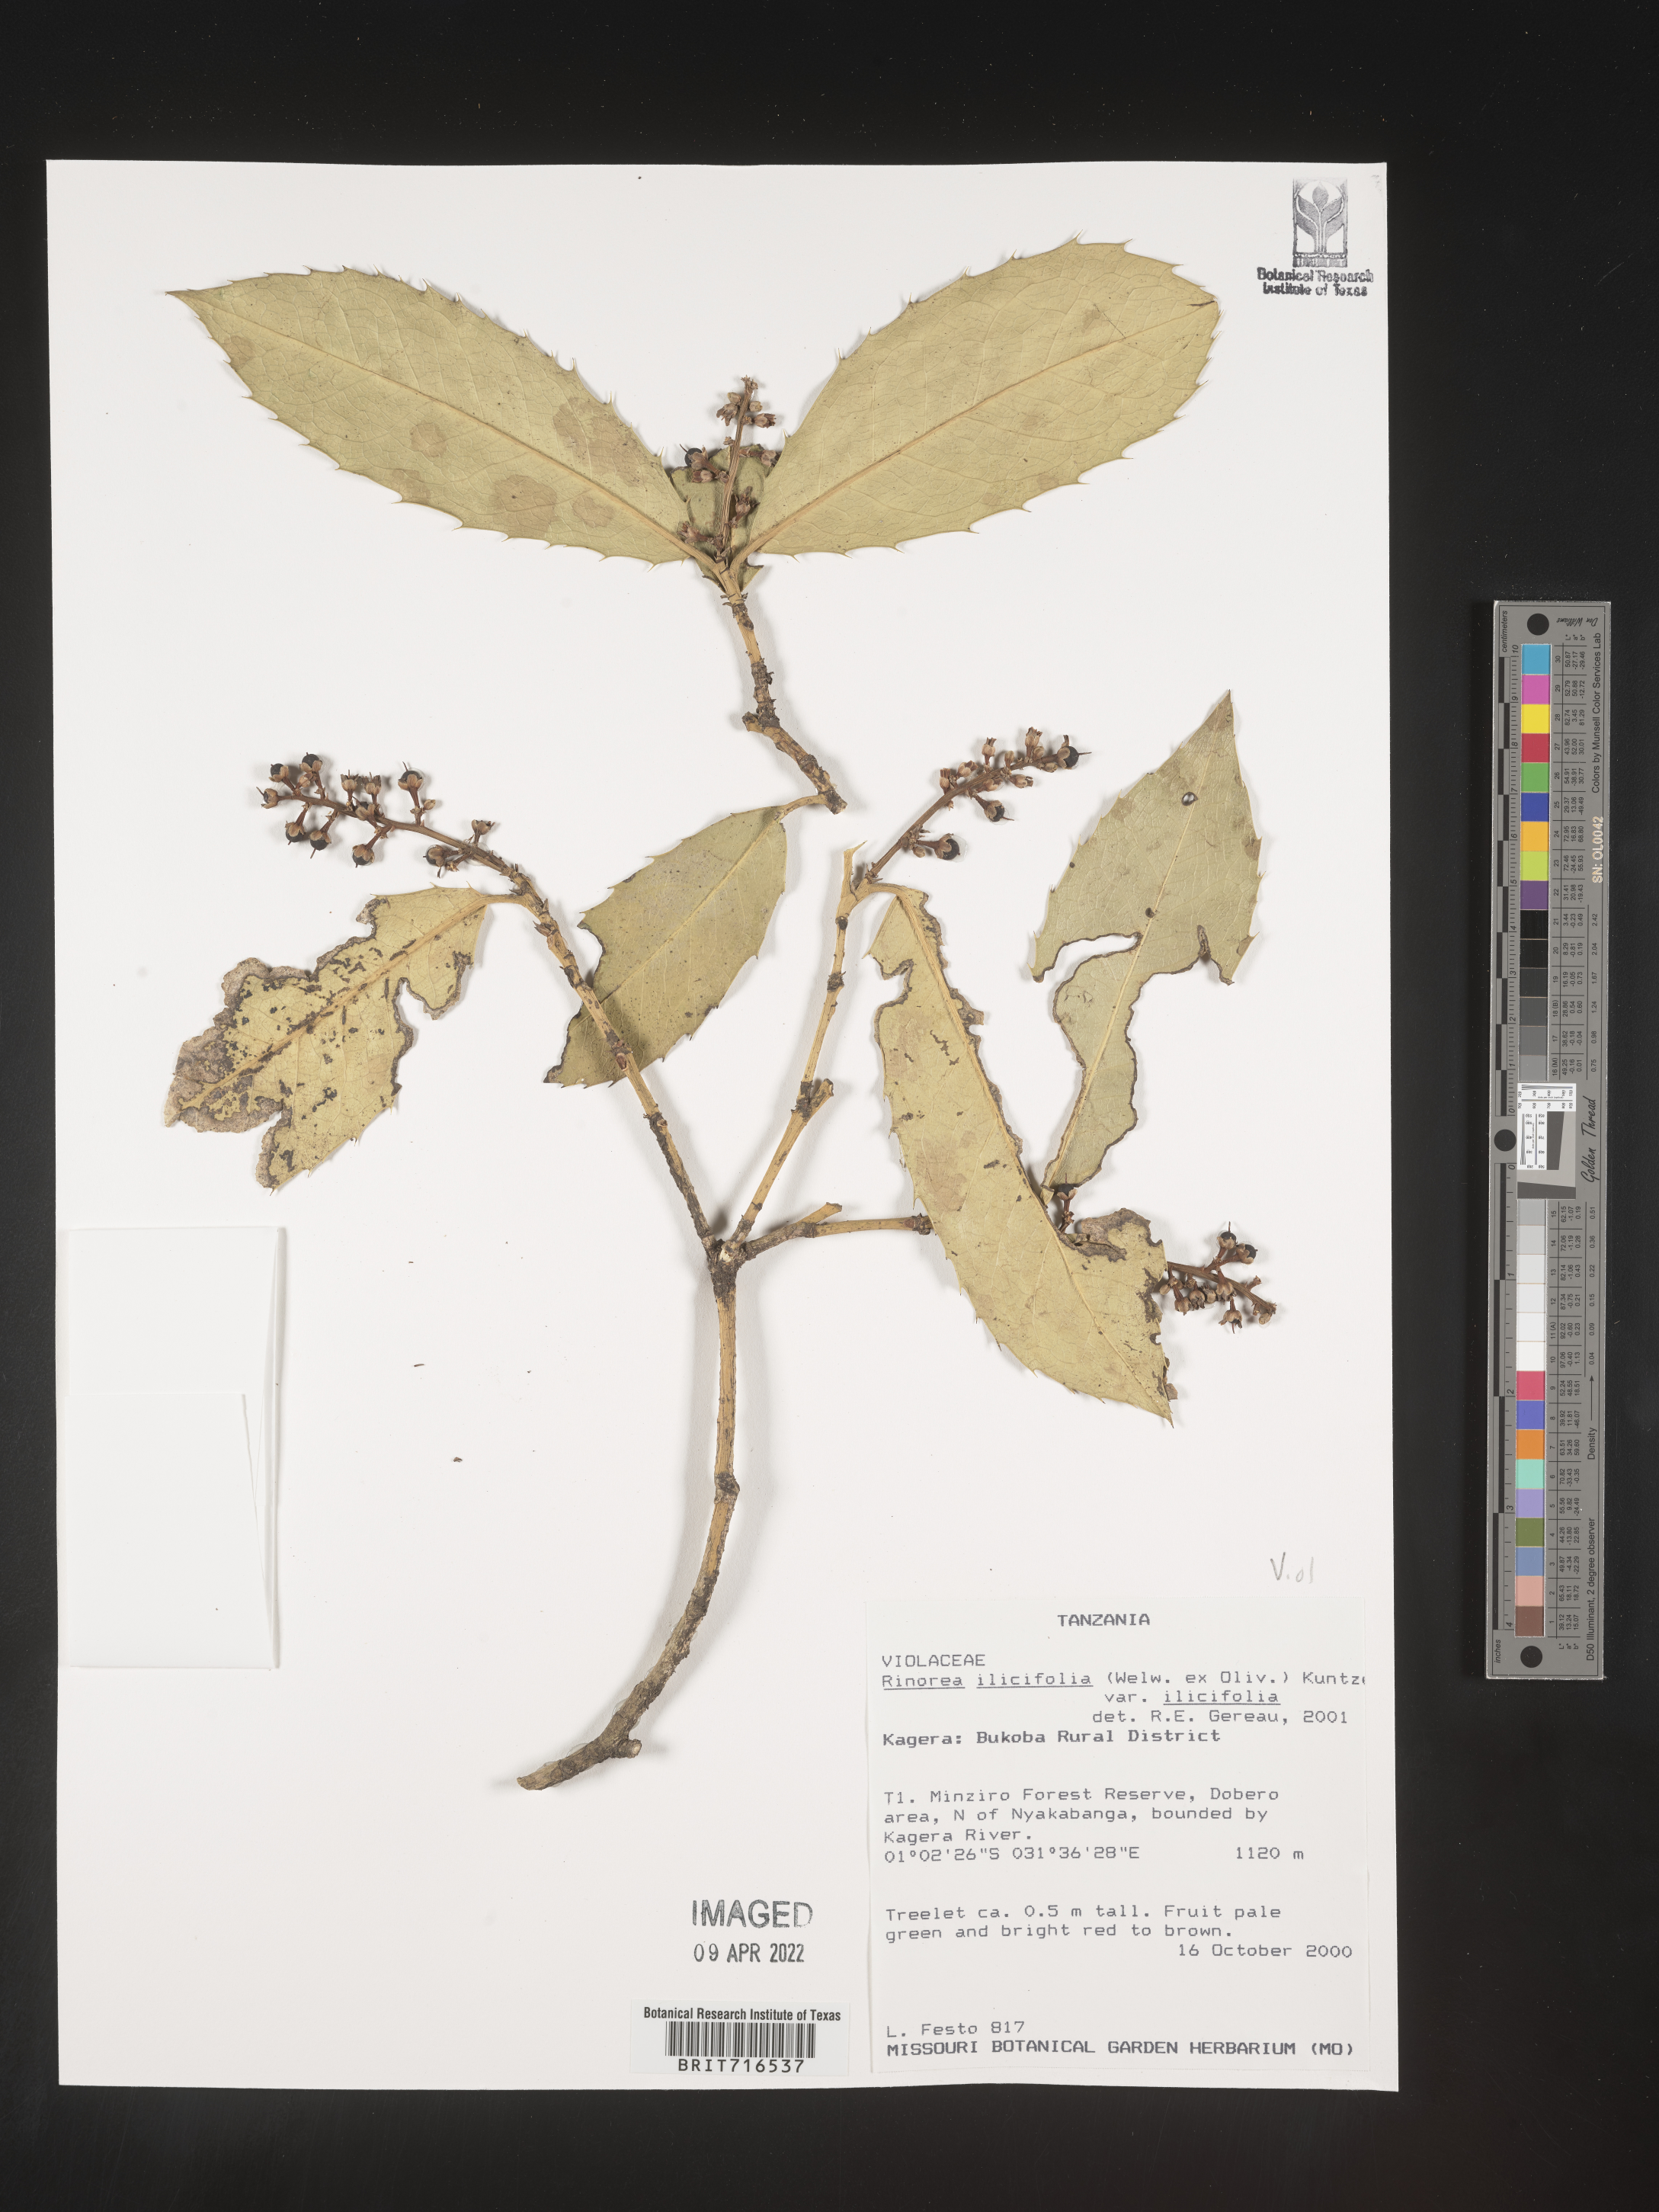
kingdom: Plantae
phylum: Tracheophyta
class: Magnoliopsida
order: Malpighiales
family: Violaceae
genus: Rinorea
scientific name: Rinorea
